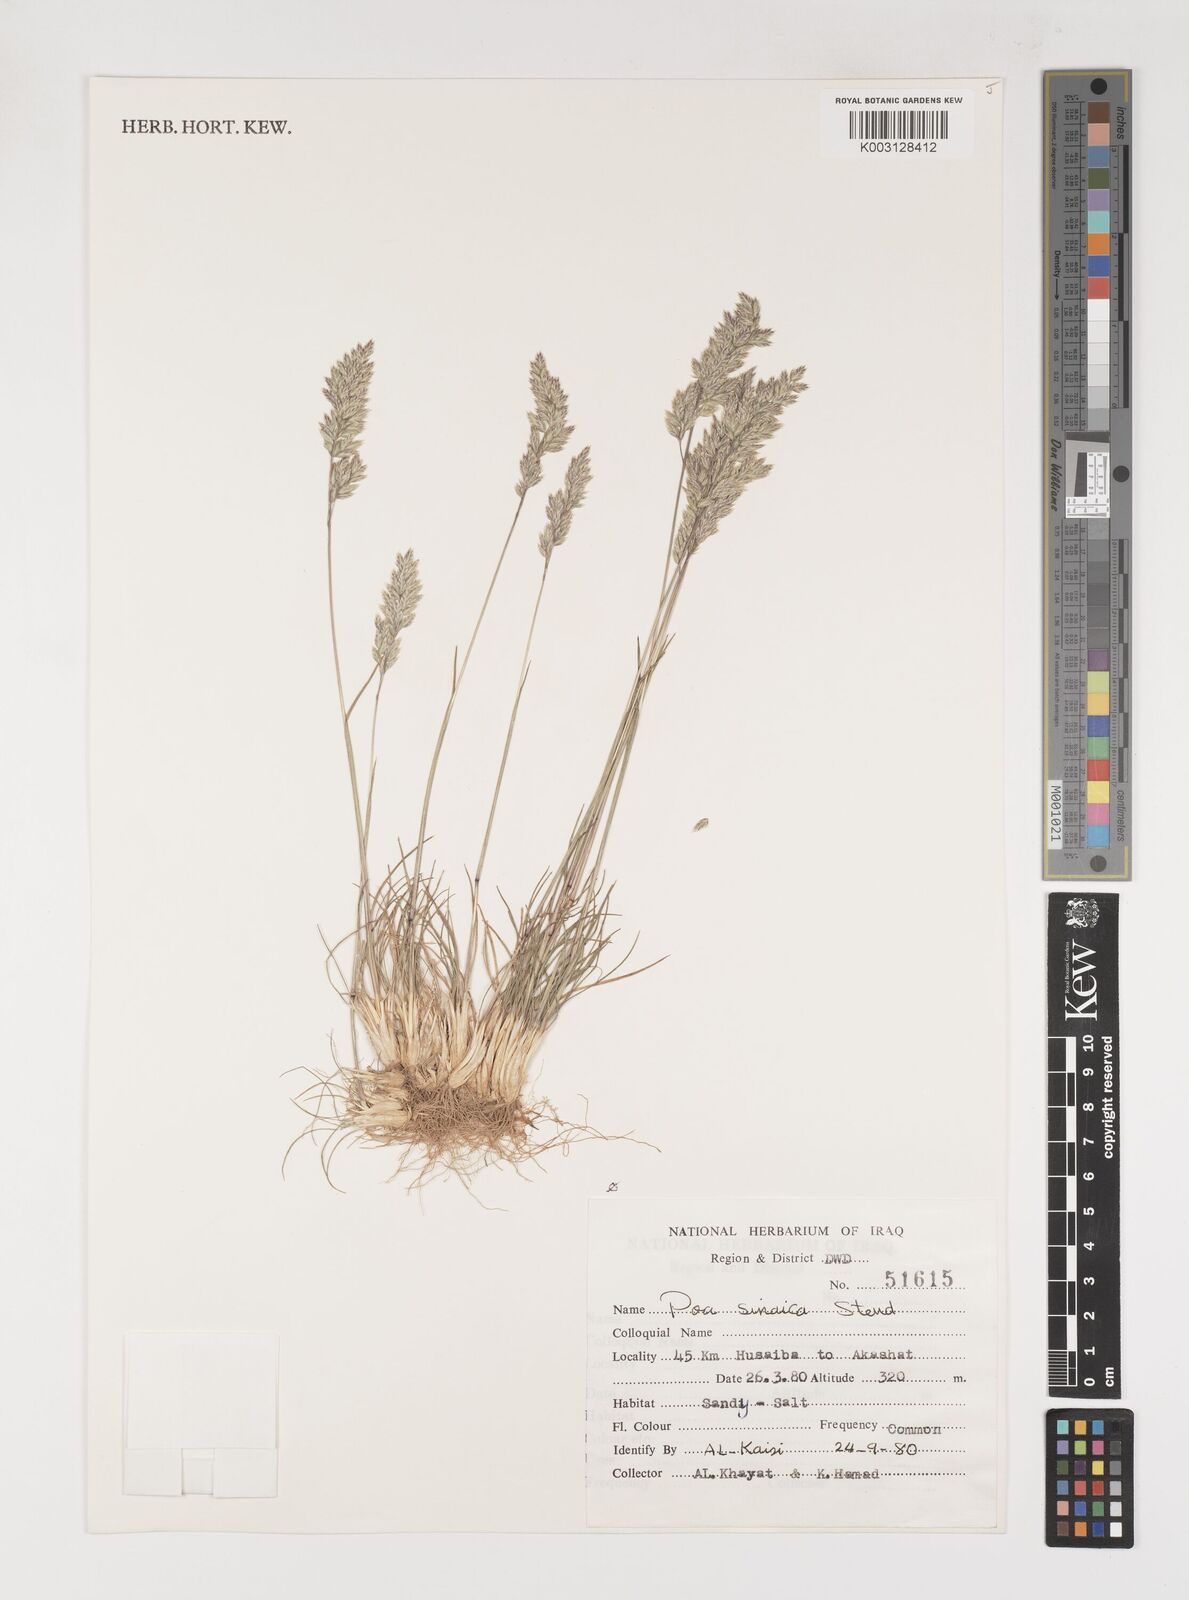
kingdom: Plantae
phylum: Tracheophyta
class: Liliopsida
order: Poales
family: Poaceae
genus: Poa
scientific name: Poa sinaica
